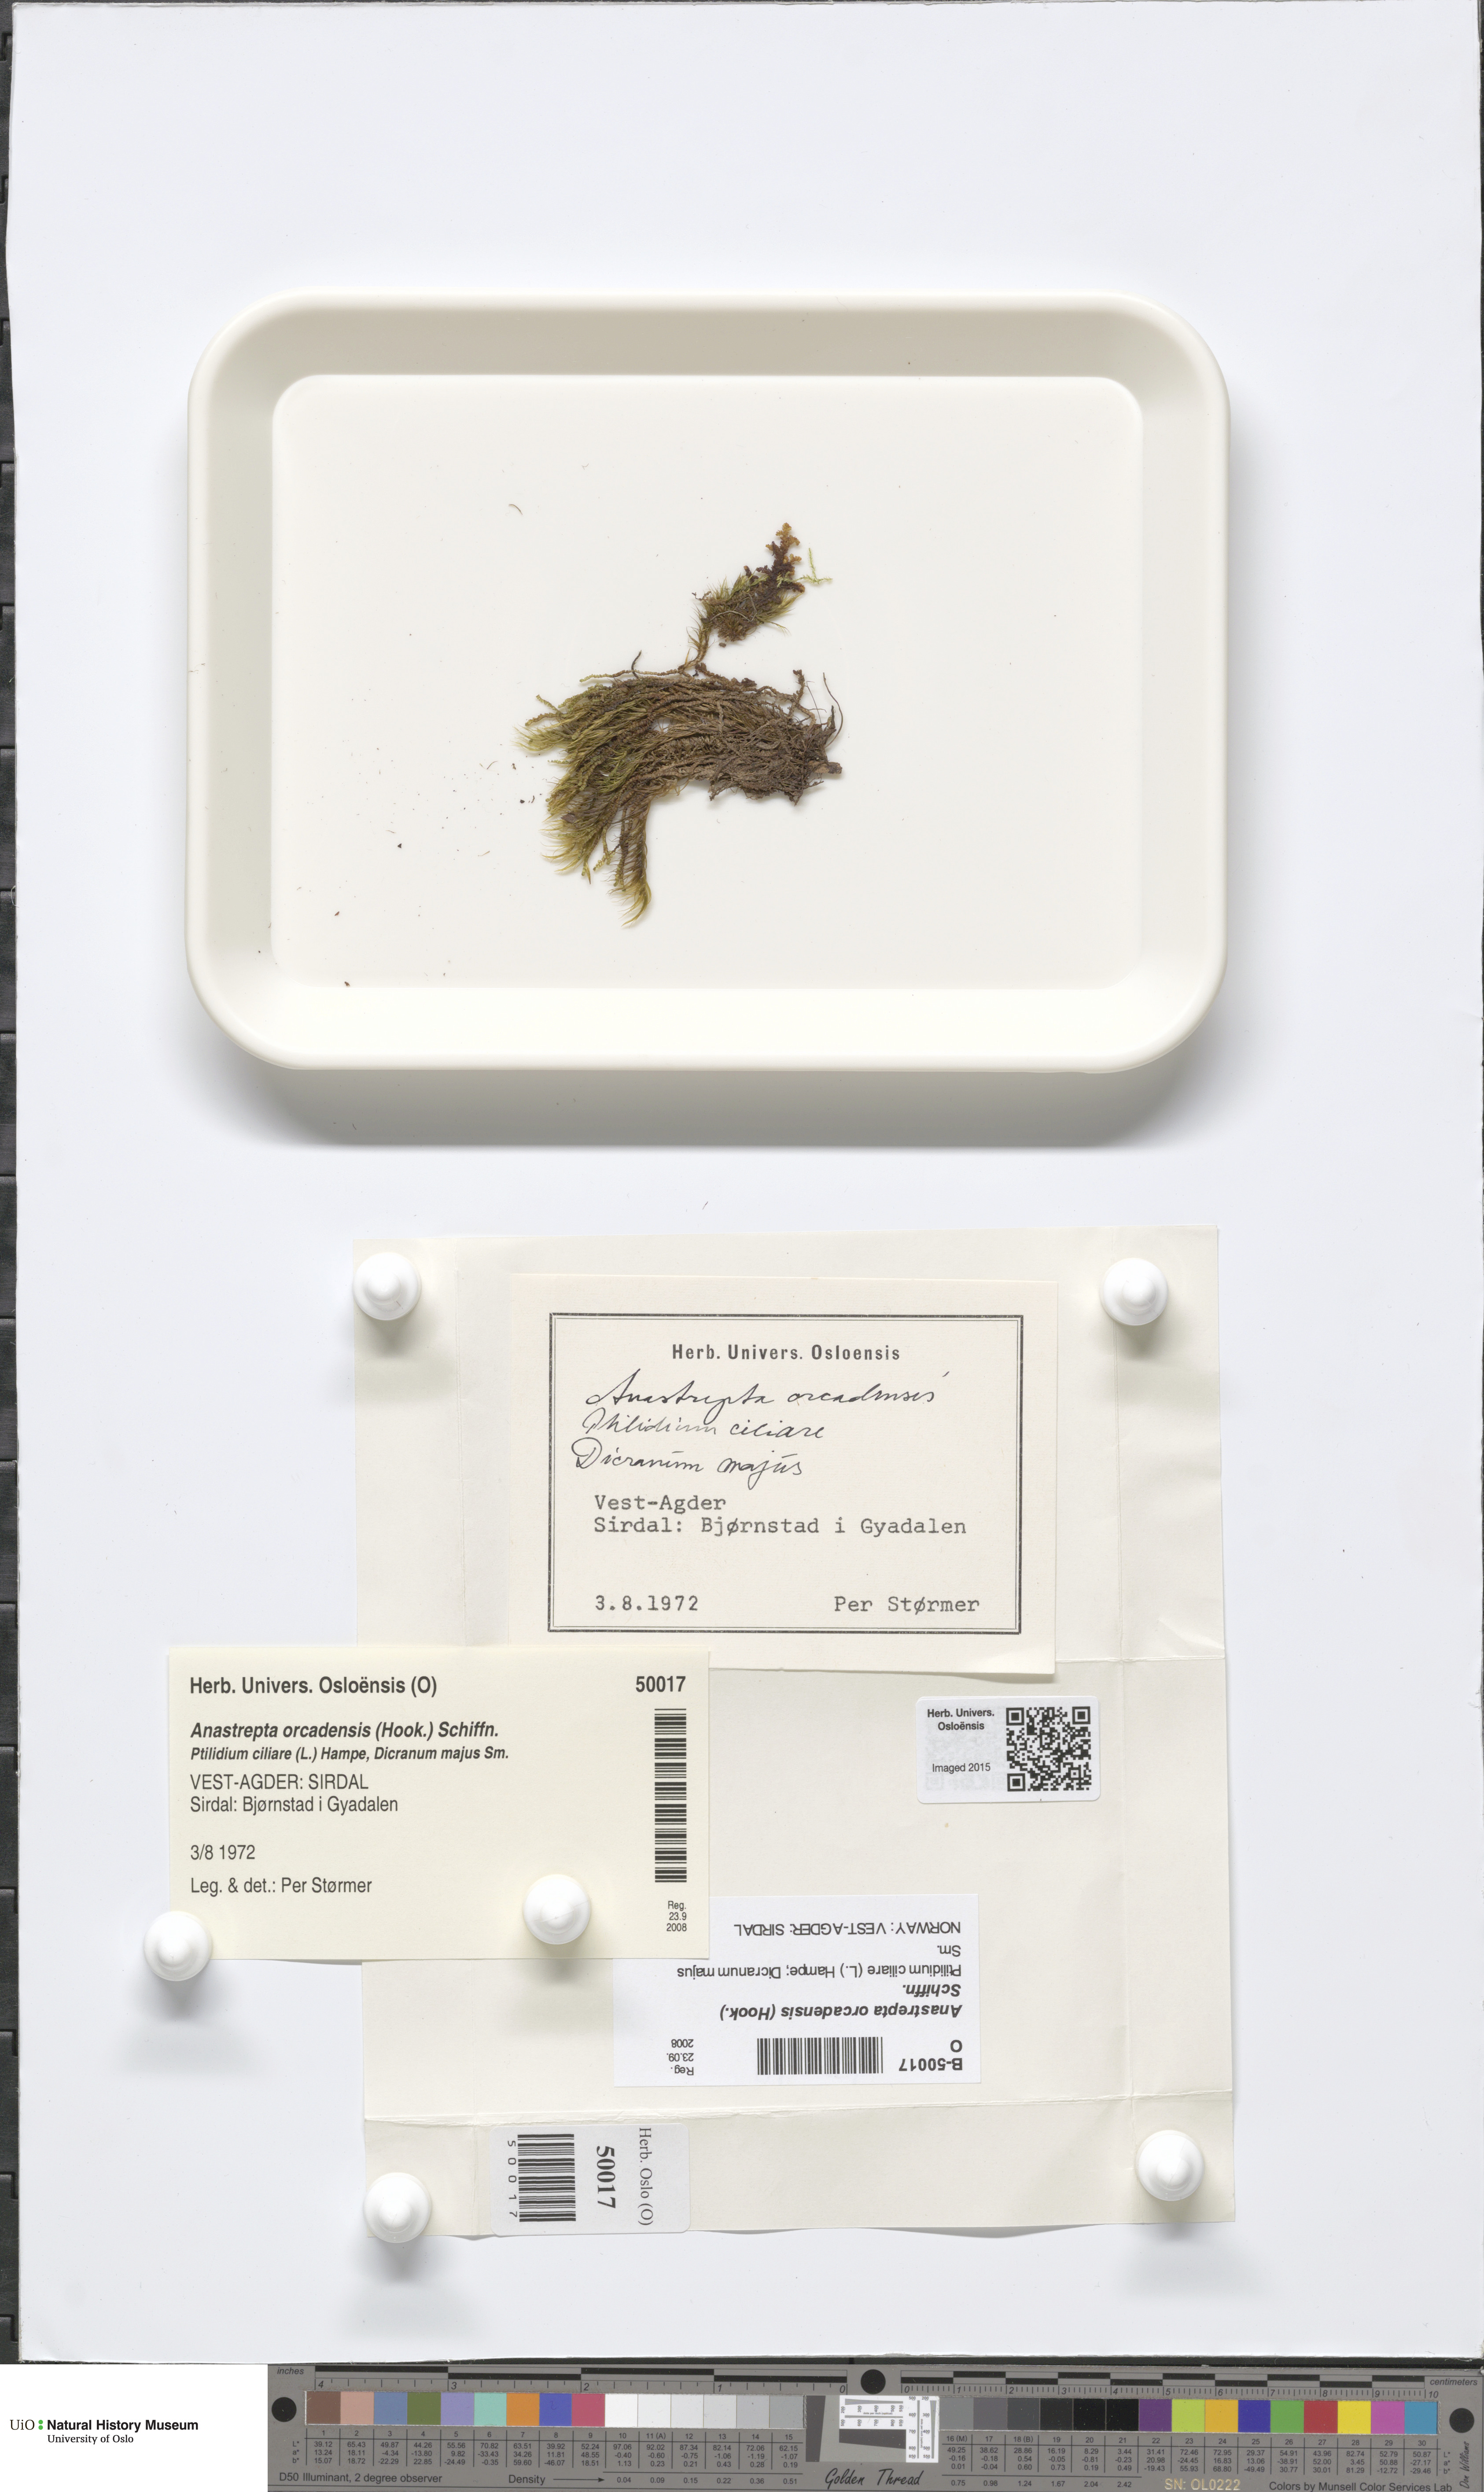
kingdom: Plantae
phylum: Marchantiophyta
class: Jungermanniopsida
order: Jungermanniales
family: Anastrophyllaceae
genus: Anastrepta
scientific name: Anastrepta orcadensis
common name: Orkney notchwort
